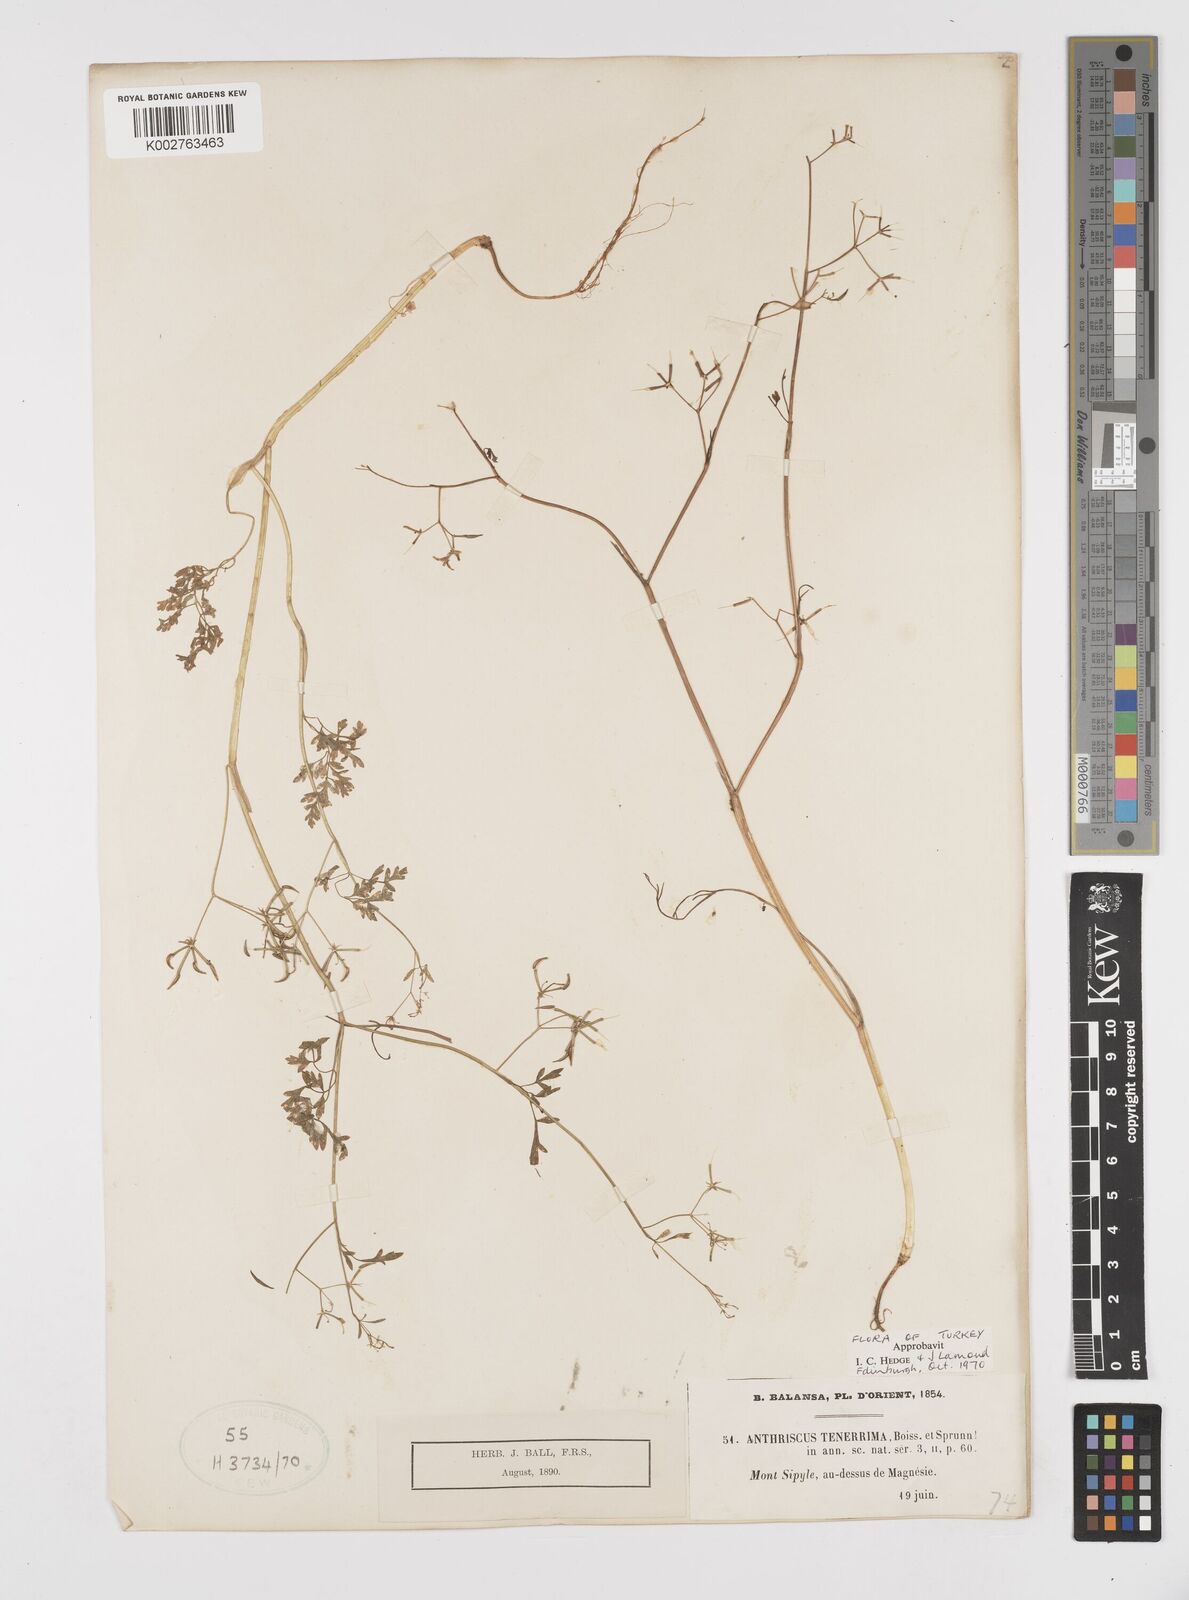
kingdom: Plantae
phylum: Tracheophyta
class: Magnoliopsida
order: Apiales
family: Apiaceae
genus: Anthriscus
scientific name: Anthriscus tenerrima
